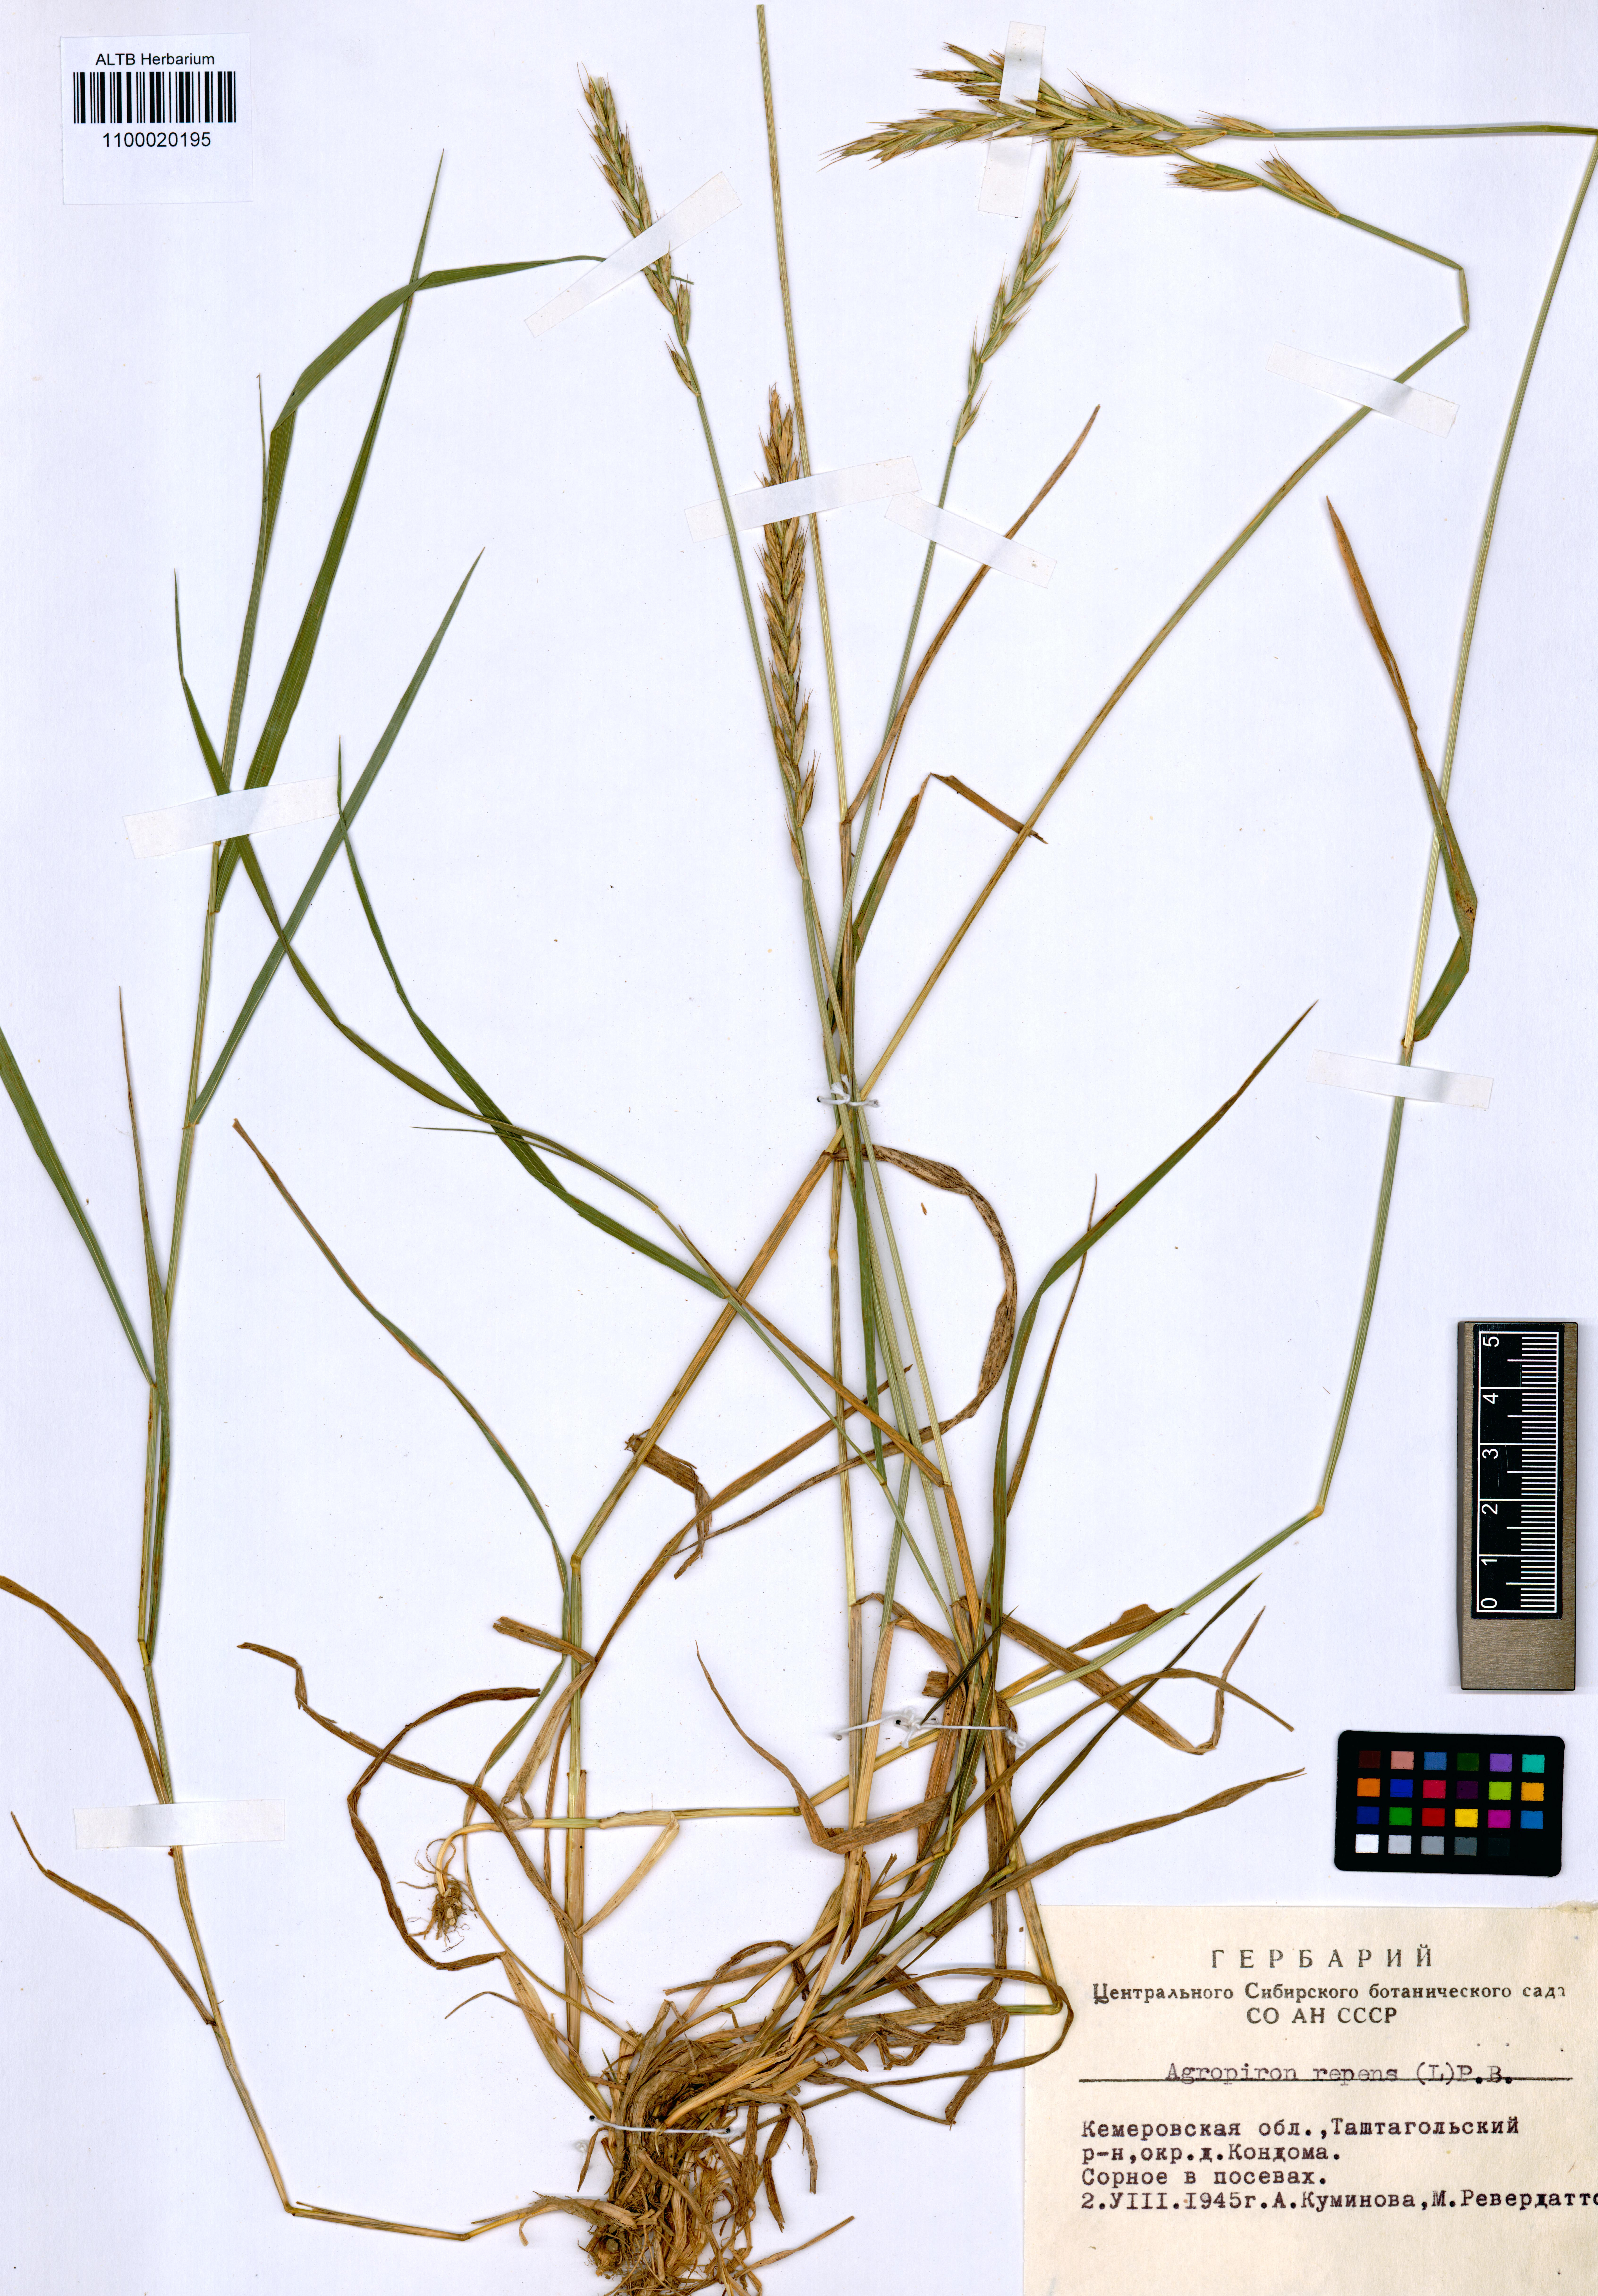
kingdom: Plantae
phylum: Tracheophyta
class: Liliopsida
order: Poales
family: Poaceae
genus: Elymus
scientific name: Elymus repens
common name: Quackgrass
